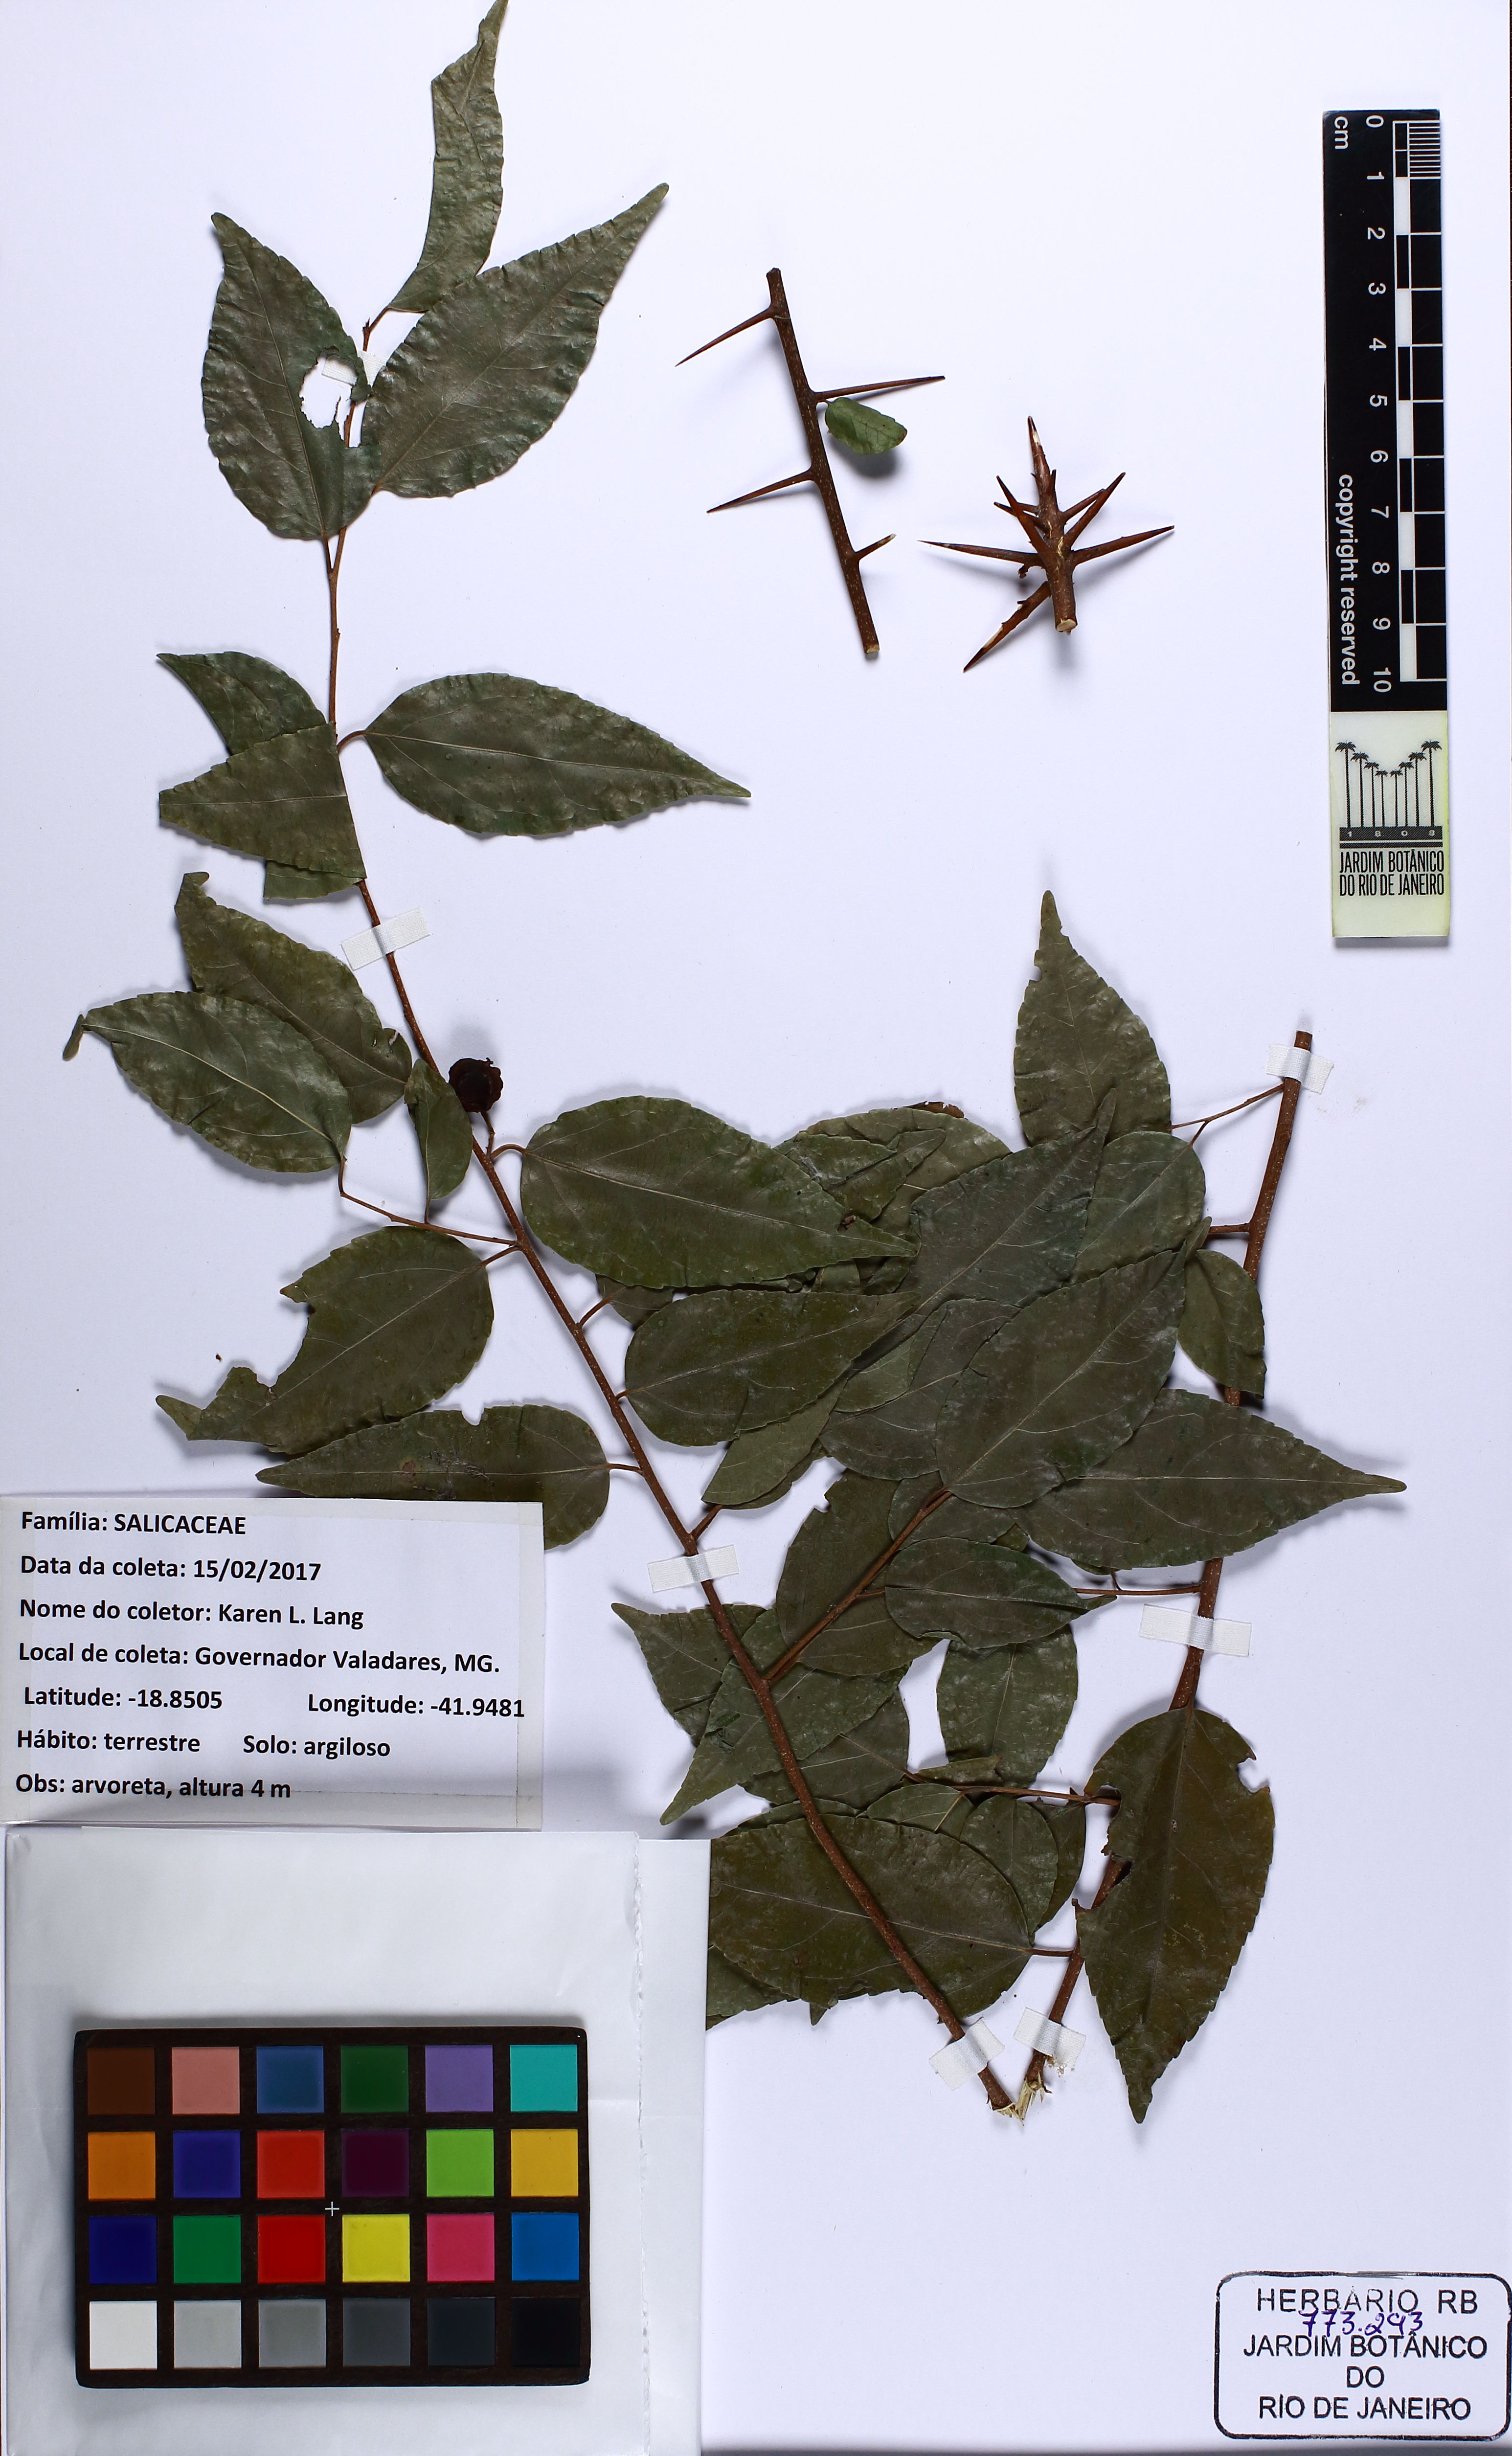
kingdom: Plantae
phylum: Tracheophyta
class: Magnoliopsida
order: Malpighiales
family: Salicaceae
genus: Xylosma
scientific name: Xylosma prockia
